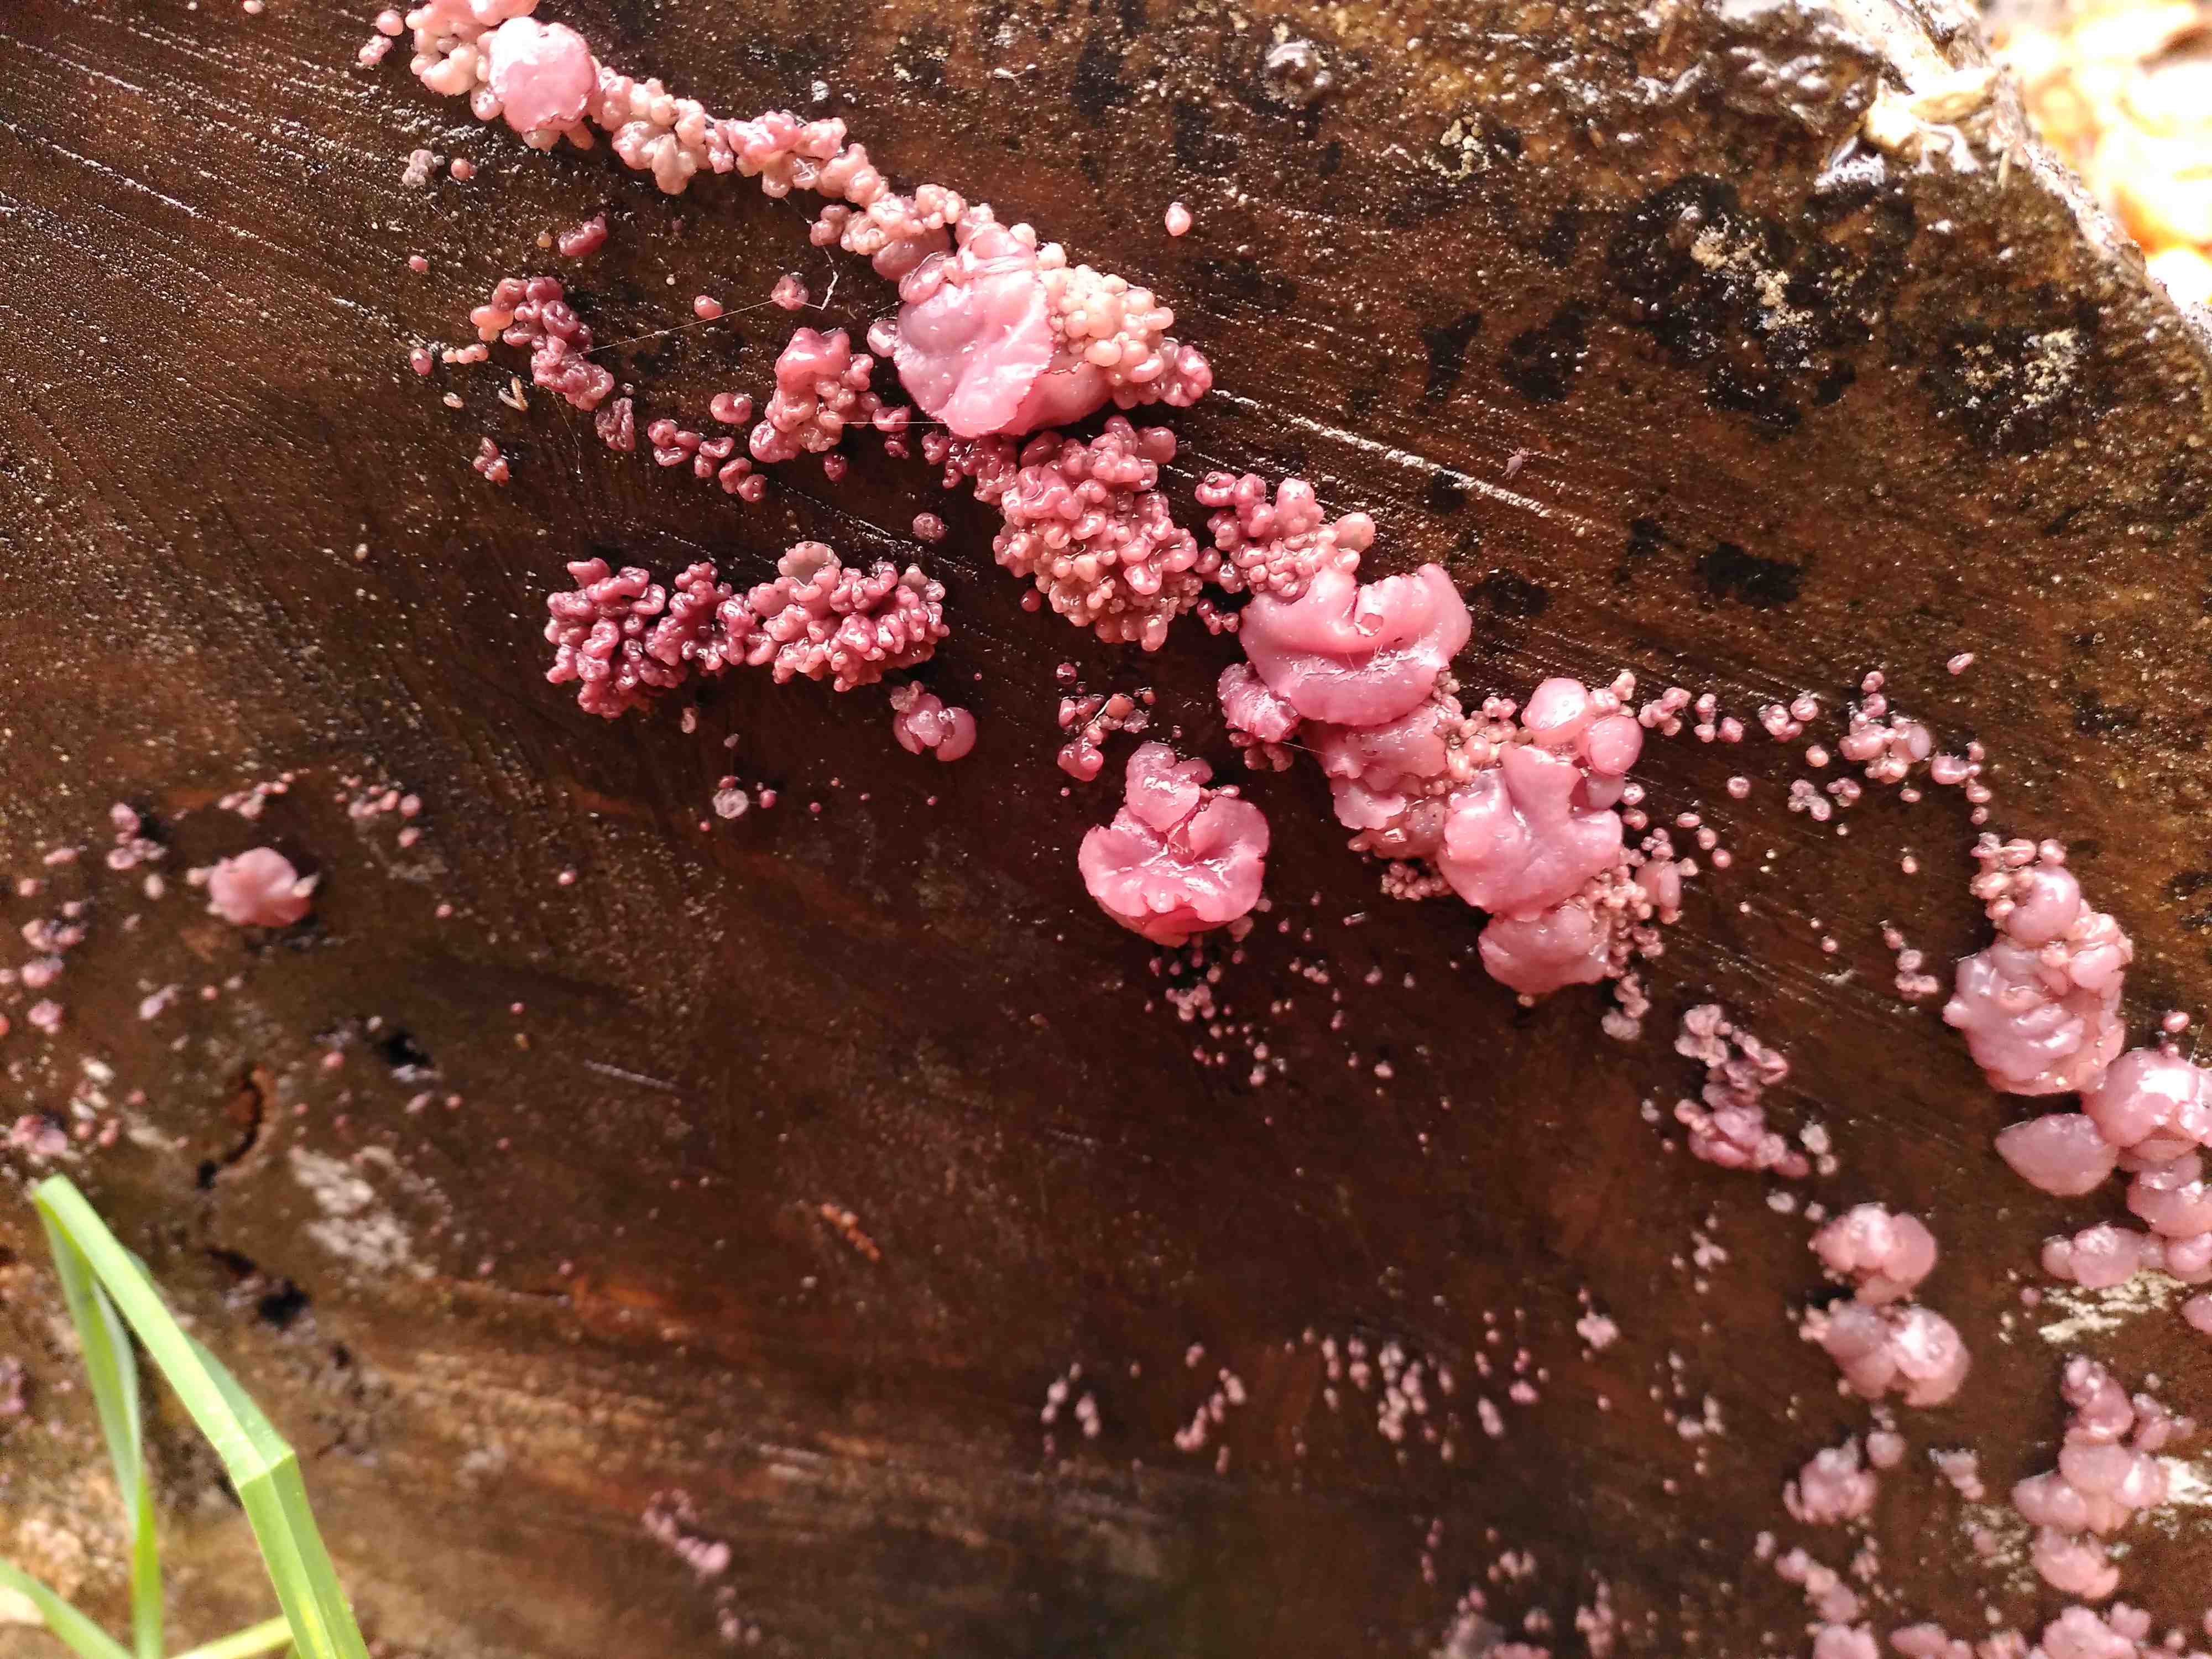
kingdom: Fungi
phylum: Ascomycota
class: Leotiomycetes
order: Helotiales
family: Gelatinodiscaceae
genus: Ascocoryne
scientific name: Ascocoryne sarcoides
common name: rødlilla sejskive
